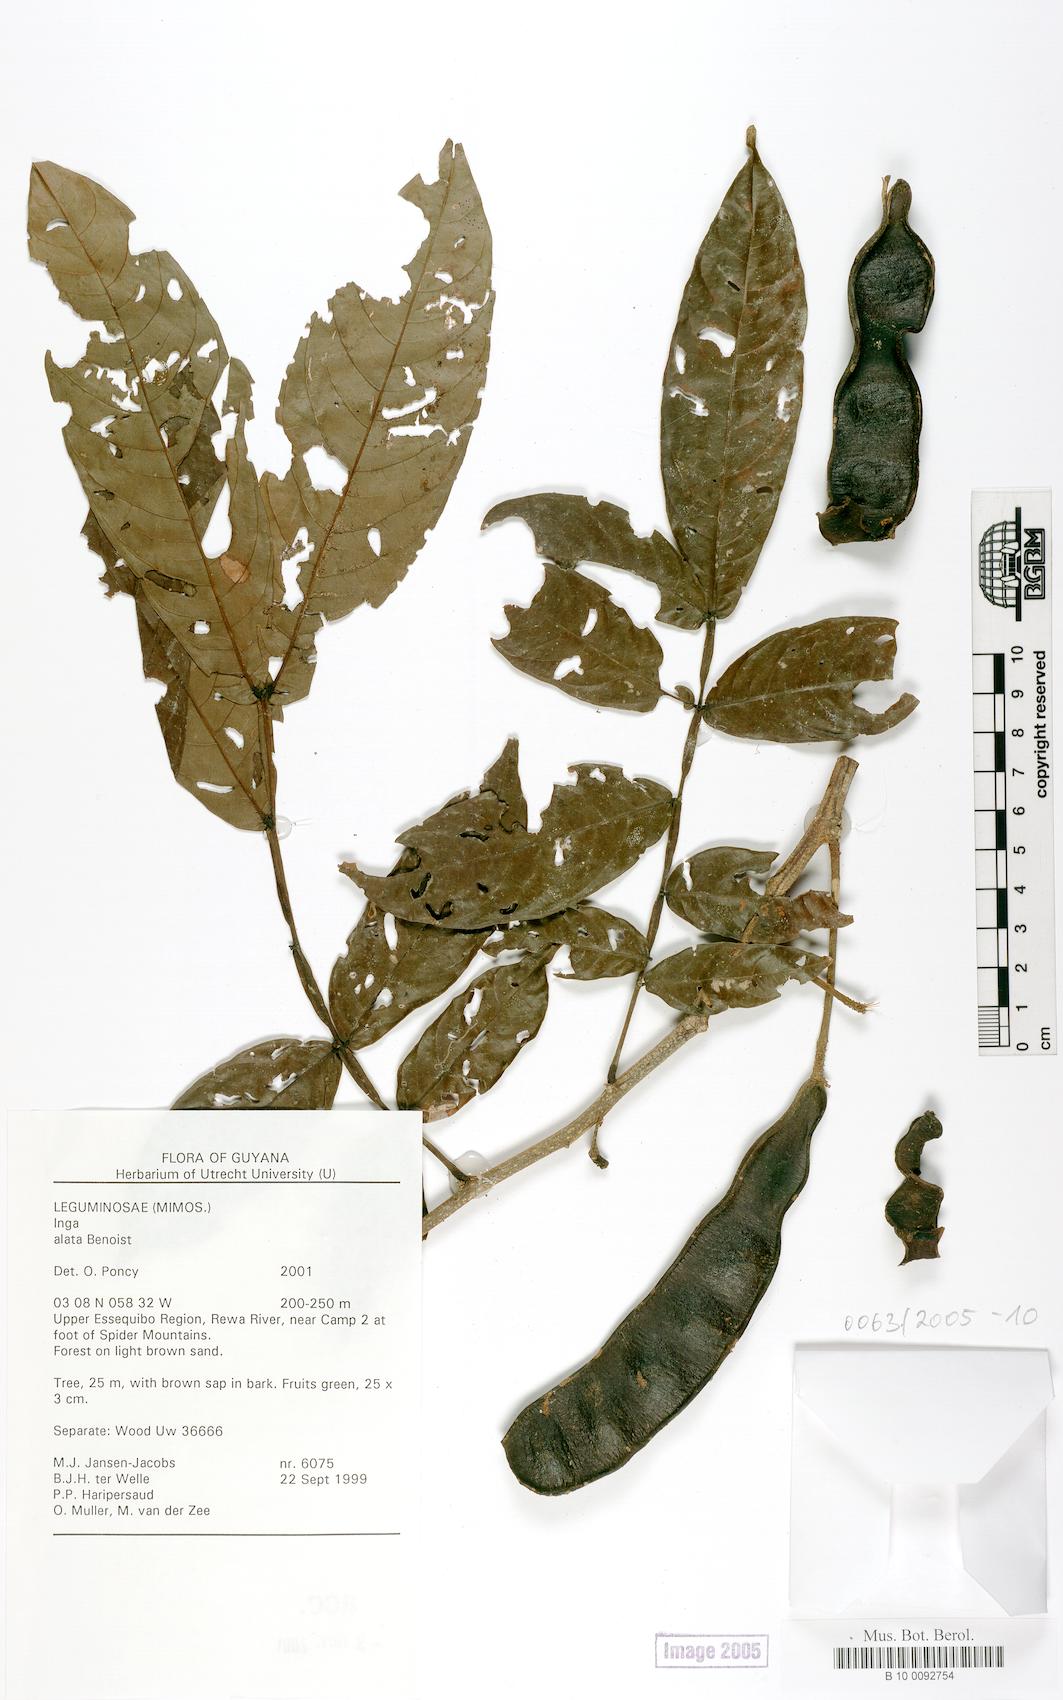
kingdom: Plantae
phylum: Tracheophyta
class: Magnoliopsida
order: Fabales
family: Fabaceae
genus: Inga
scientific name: Inga alata
